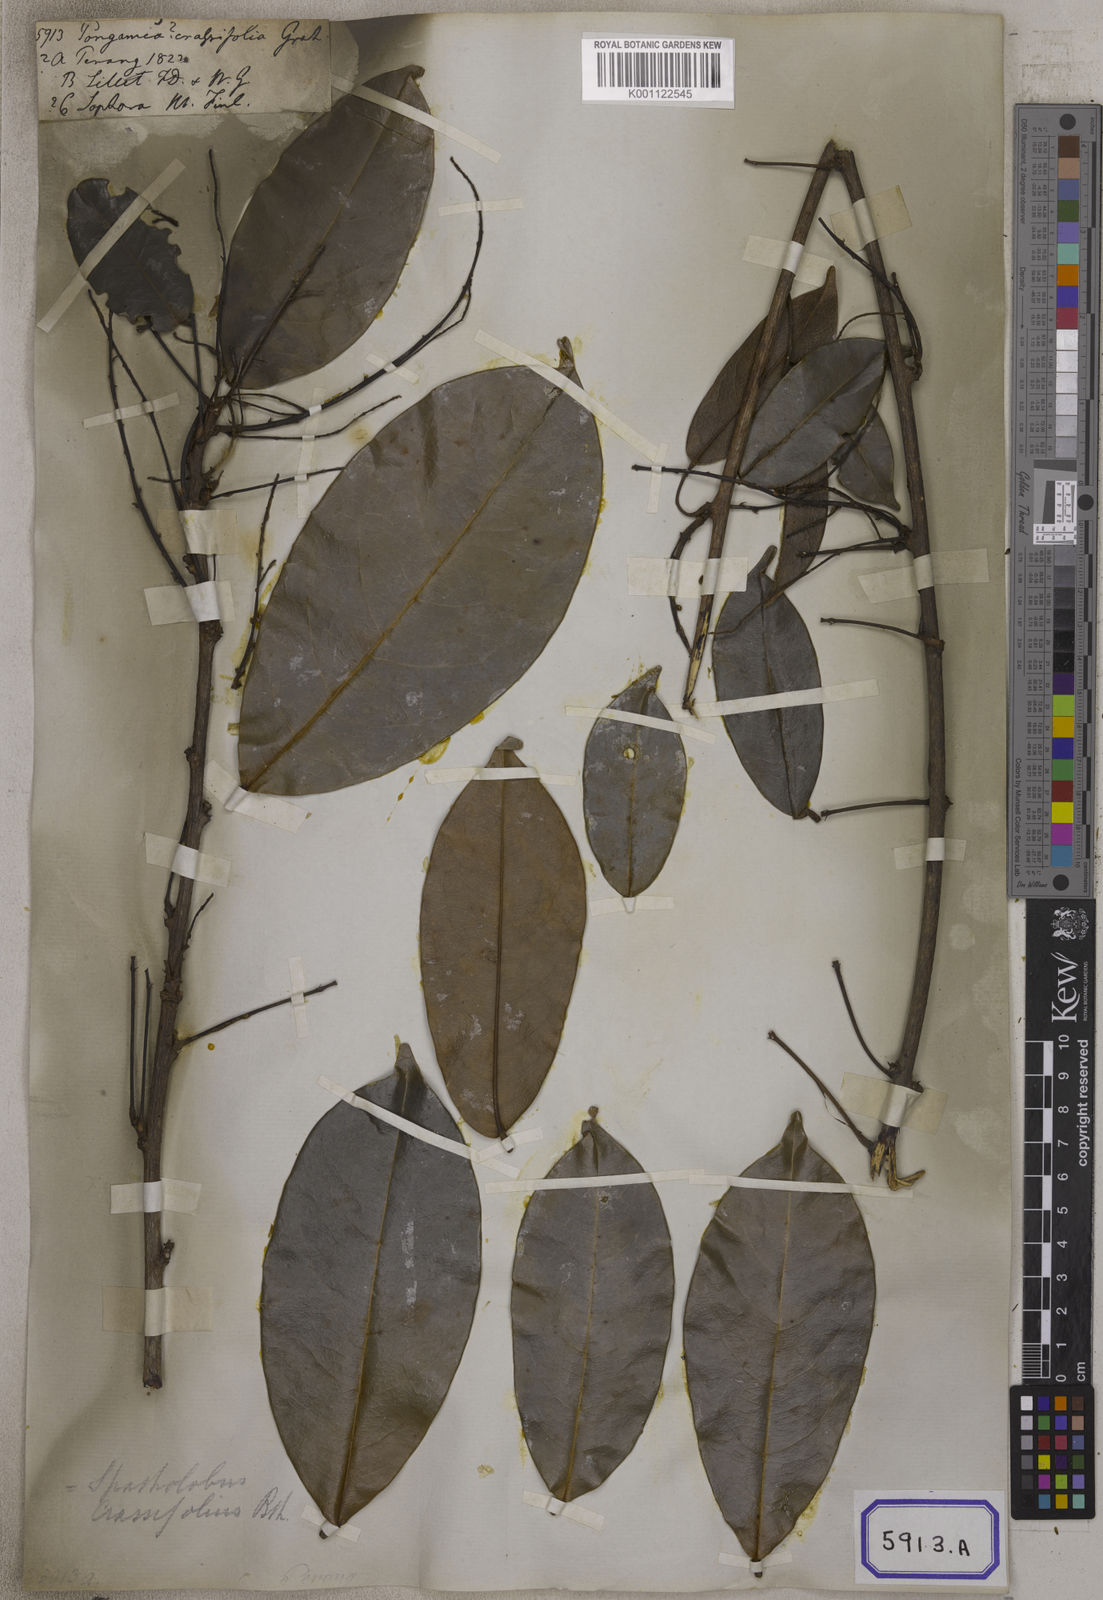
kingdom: Plantae
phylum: Tracheophyta
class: Magnoliopsida
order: Fabales
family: Fabaceae
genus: Spatholobus
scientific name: Spatholobus crassifolius
